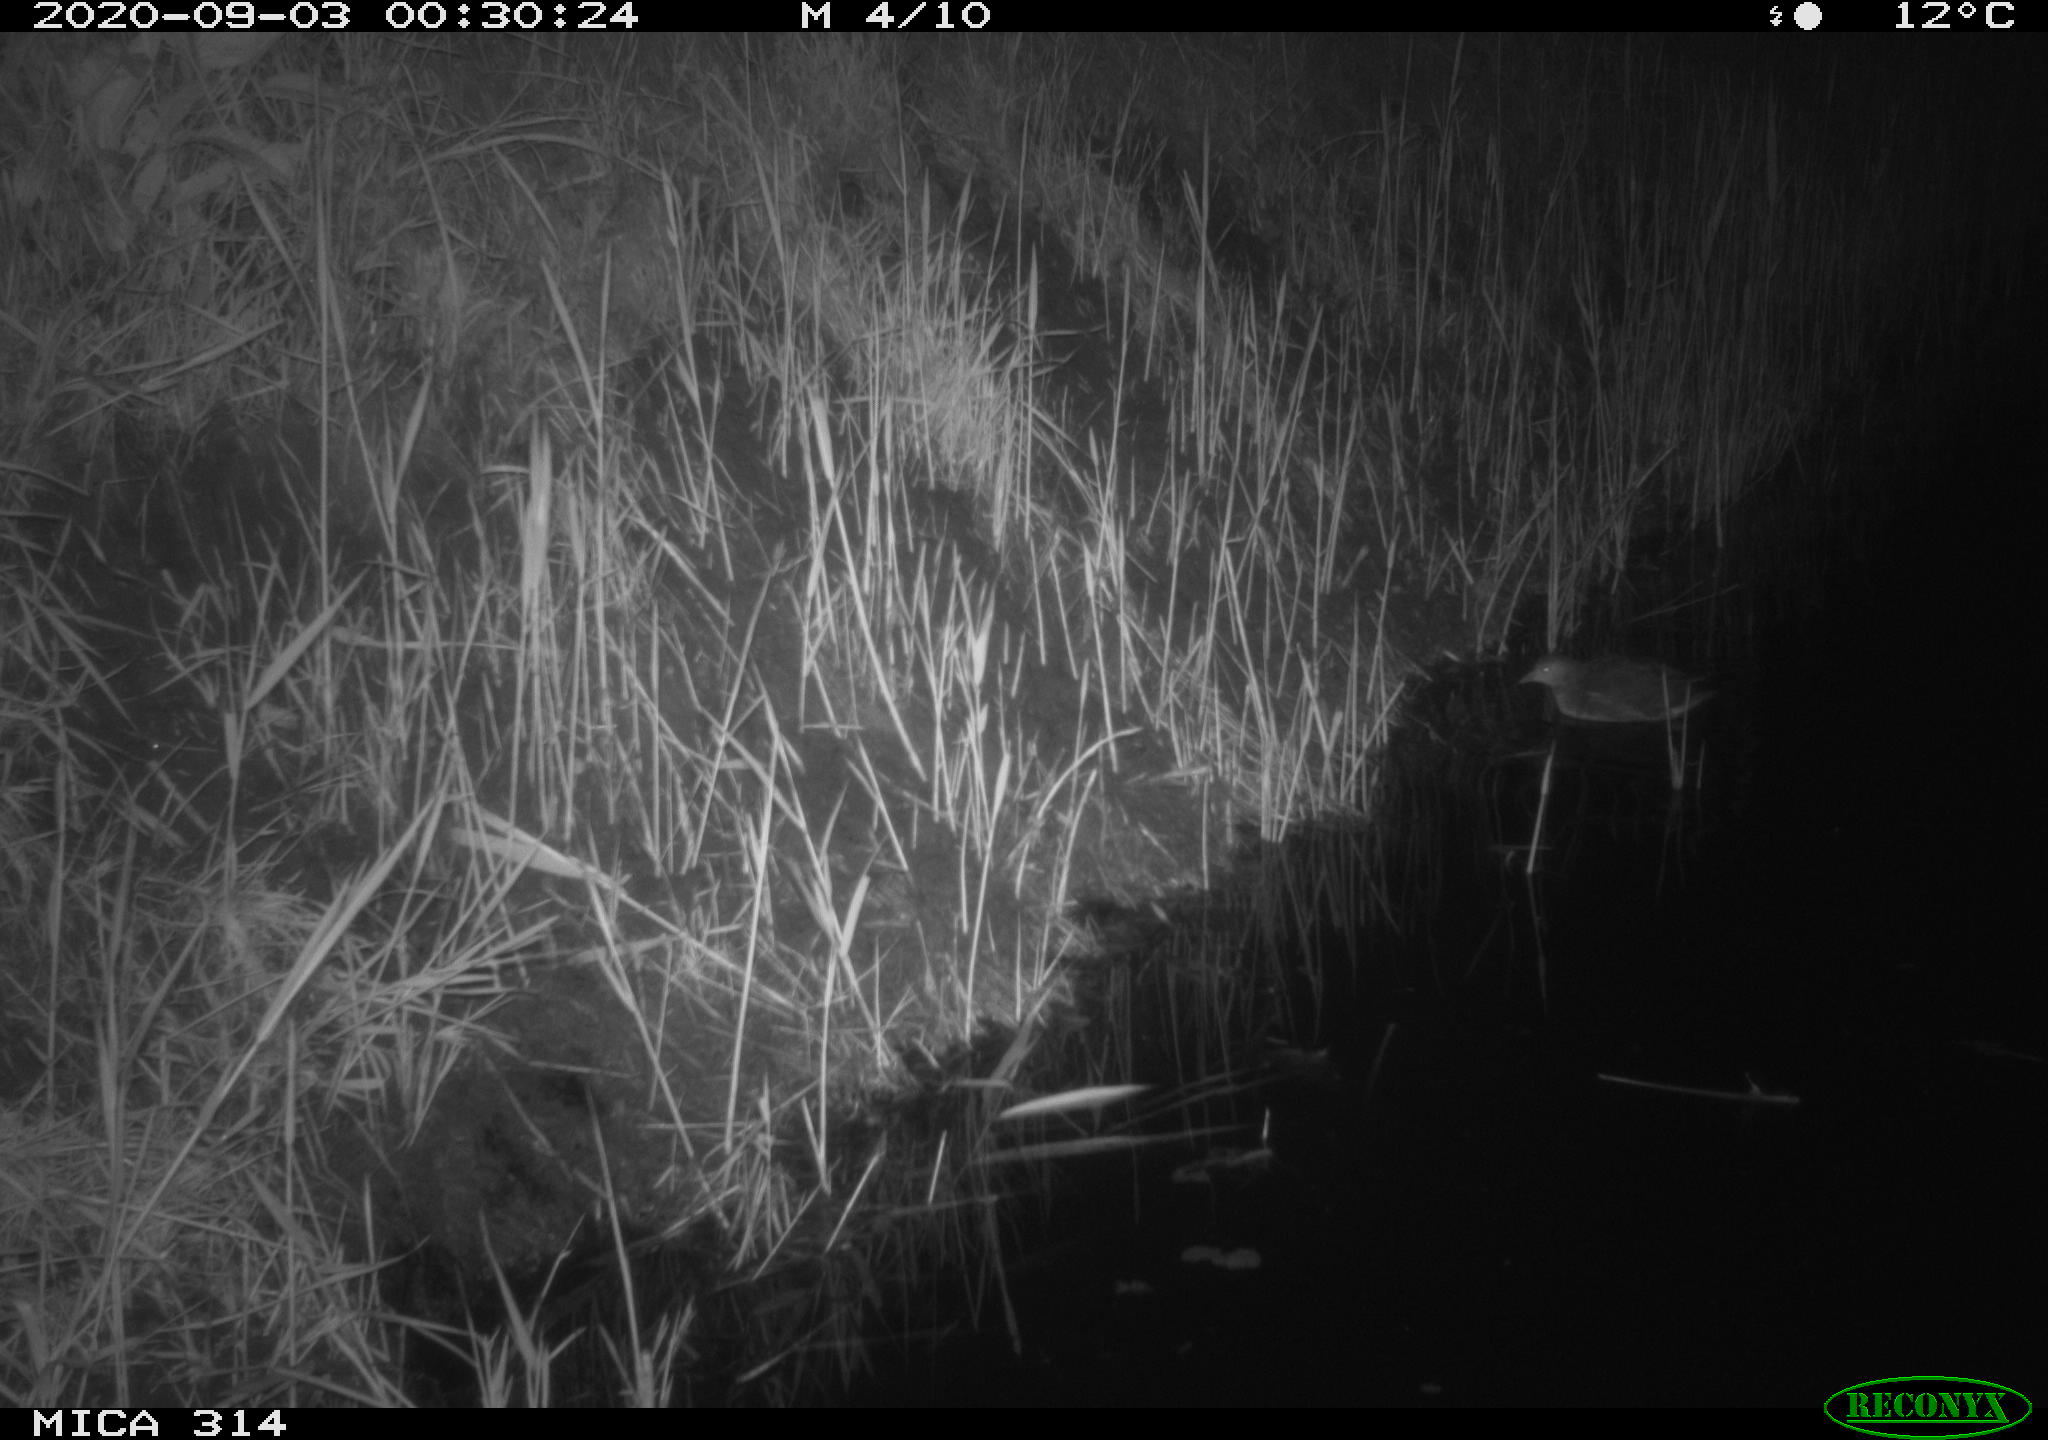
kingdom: Animalia
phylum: Chordata
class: Aves
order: Gruiformes
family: Rallidae
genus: Gallinula
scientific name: Gallinula chloropus
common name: Common moorhen
